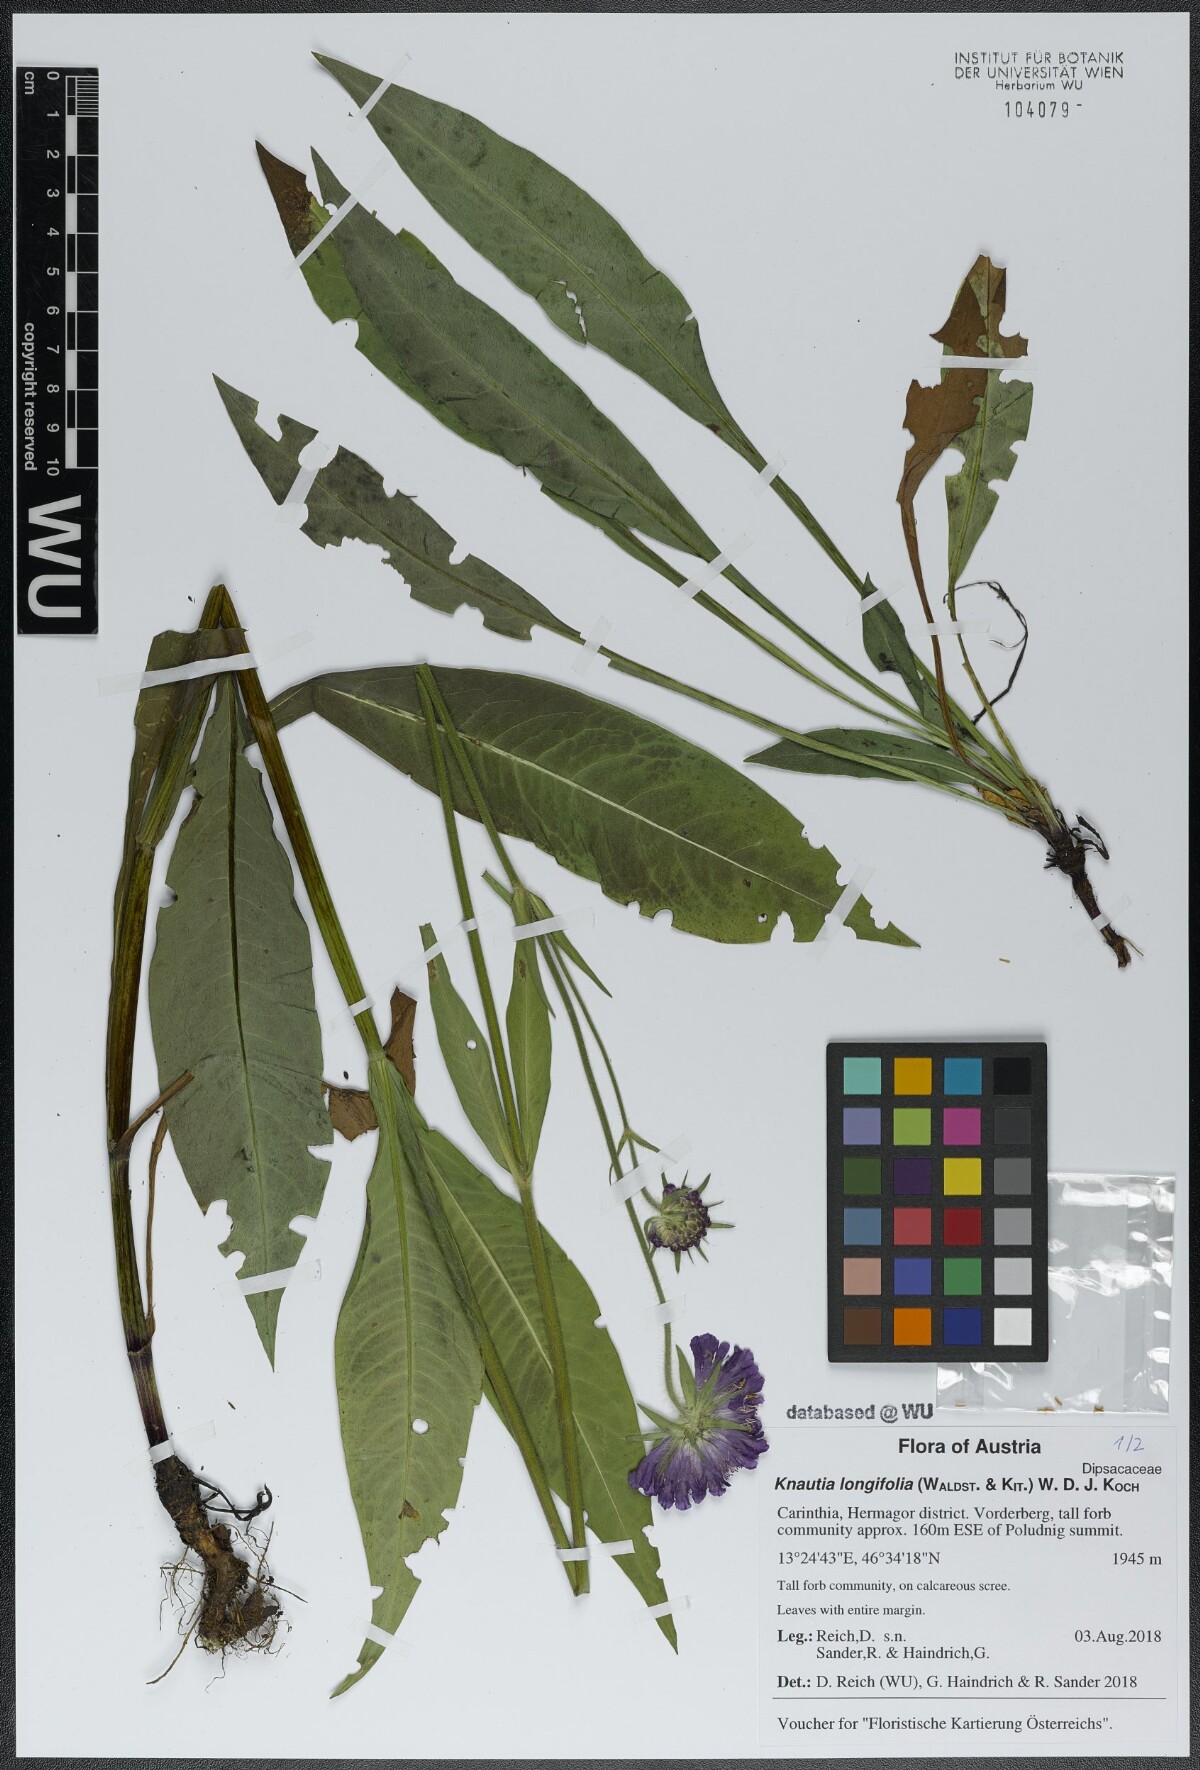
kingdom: Plantae
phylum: Tracheophyta
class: Magnoliopsida
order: Dipsacales
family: Caprifoliaceae
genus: Knautia
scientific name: Knautia longifolia
